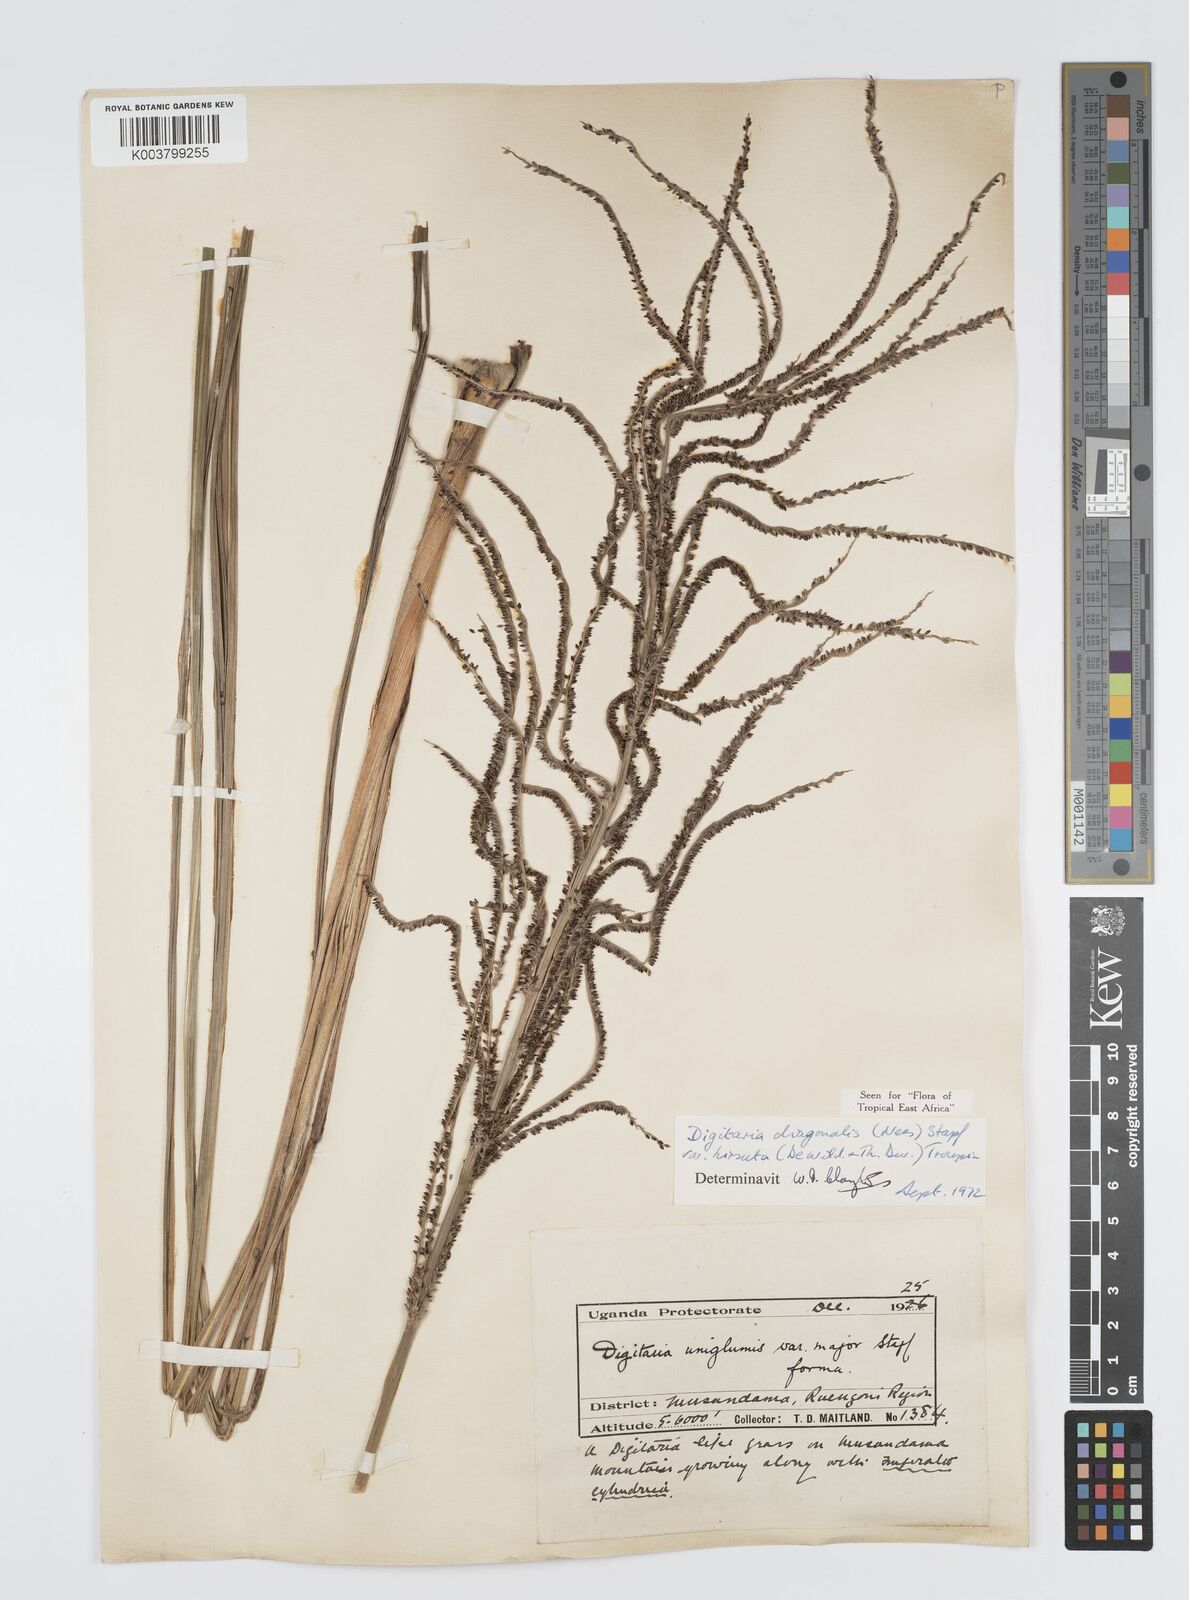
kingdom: Plantae
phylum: Tracheophyta
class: Liliopsida
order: Poales
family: Poaceae
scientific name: Poaceae
